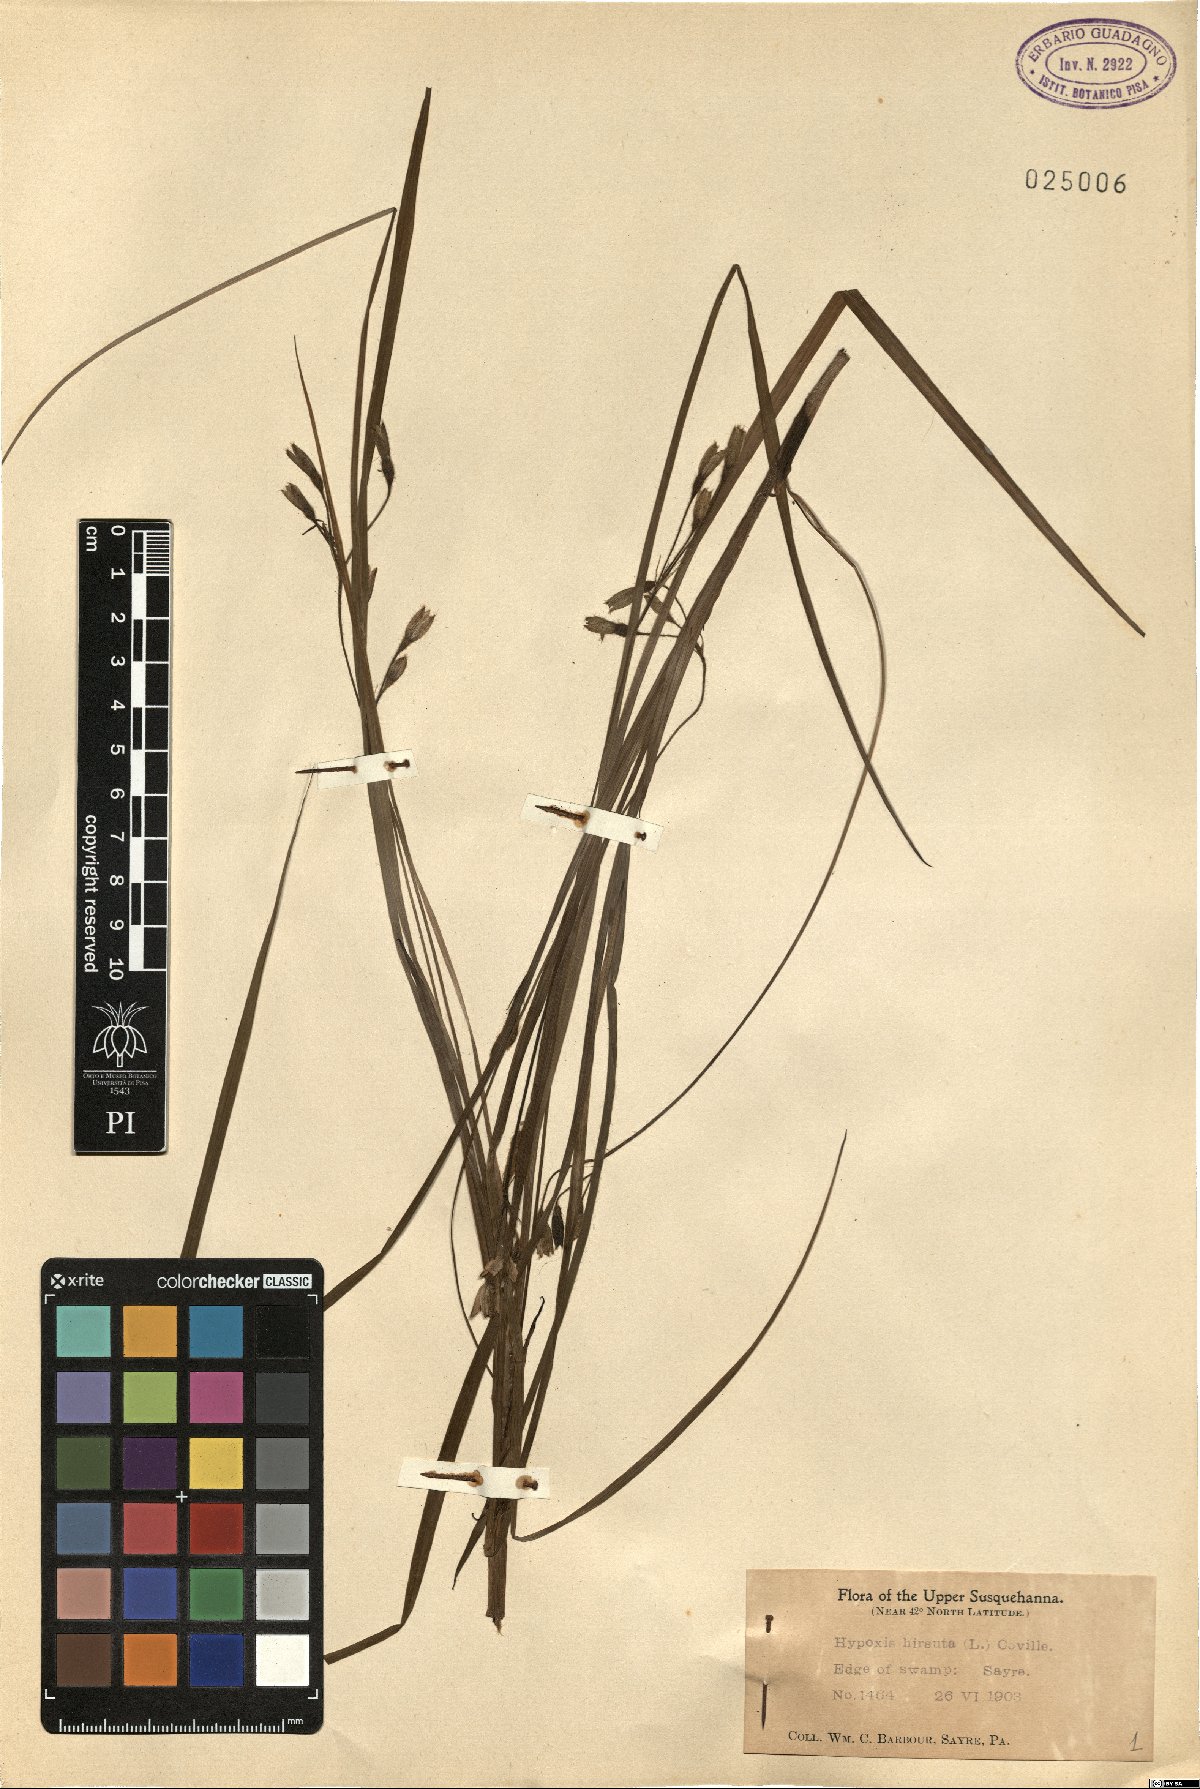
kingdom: Plantae
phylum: Tracheophyta
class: Liliopsida
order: Asparagales
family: Hypoxidaceae
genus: Hypoxis
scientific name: Hypoxis hirsuta
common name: Common goldstar
